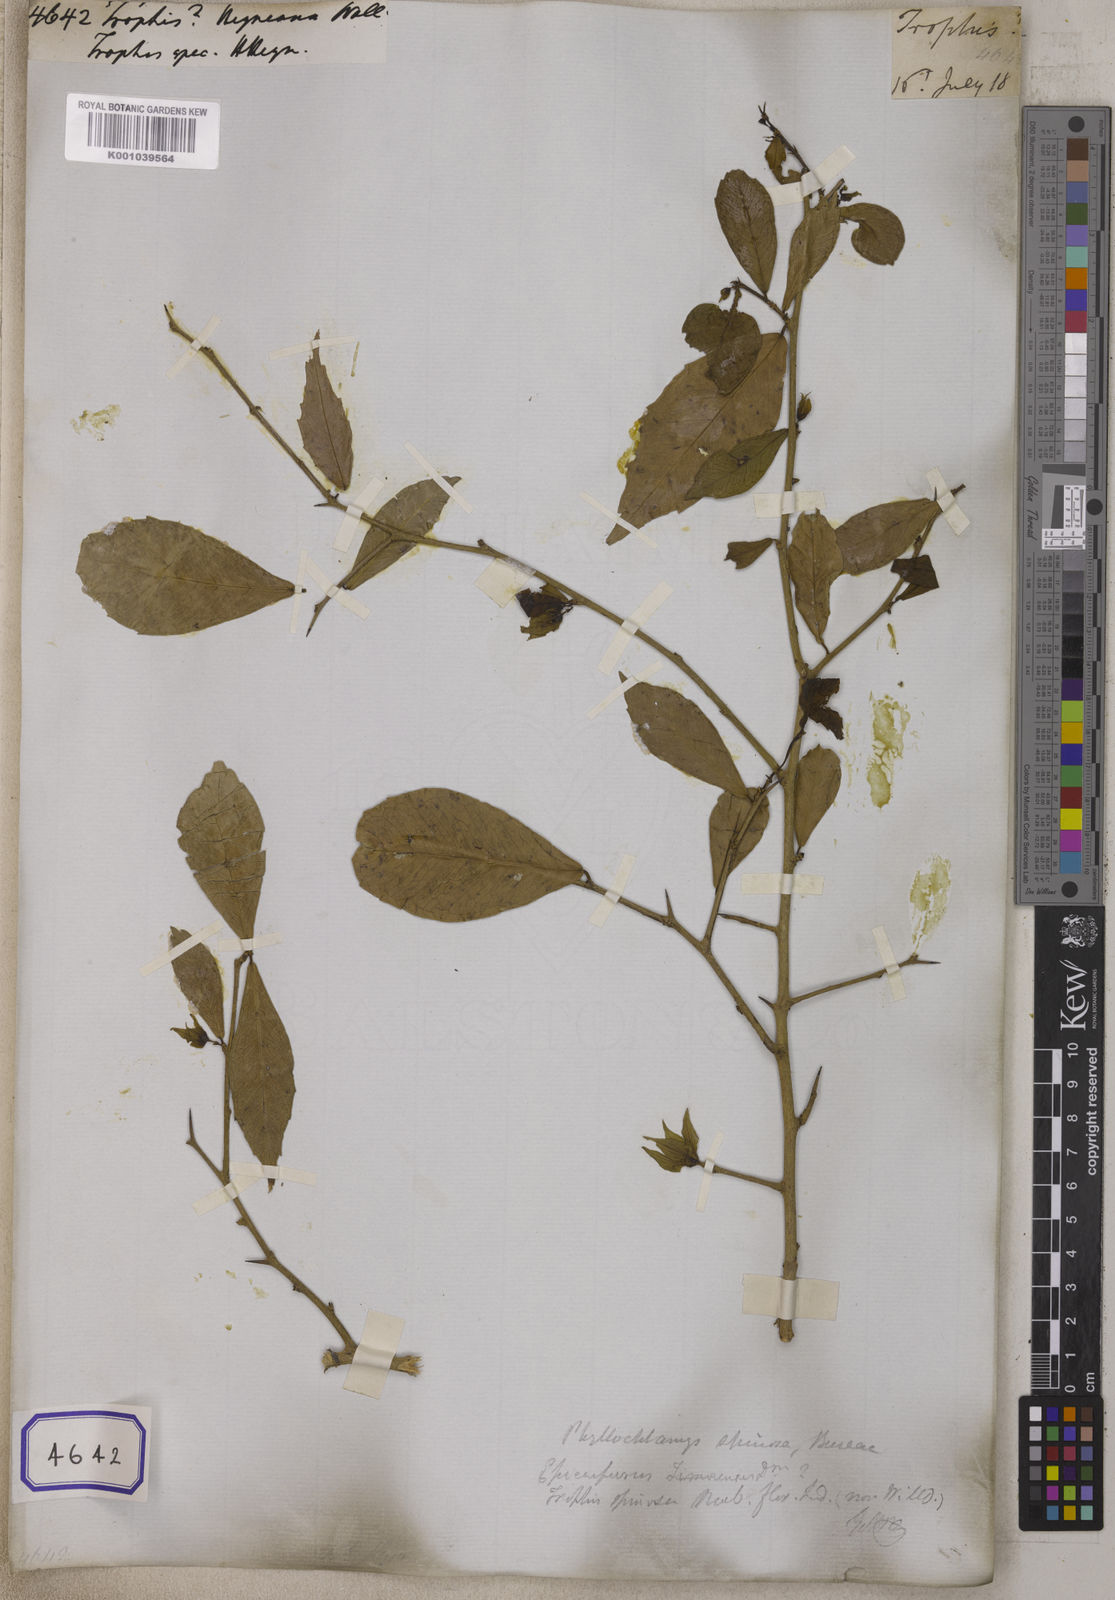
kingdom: Plantae
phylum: Tracheophyta
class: Magnoliopsida
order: Rosales
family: Moraceae
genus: Taxotrophis
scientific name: Taxotrophis taxoides
